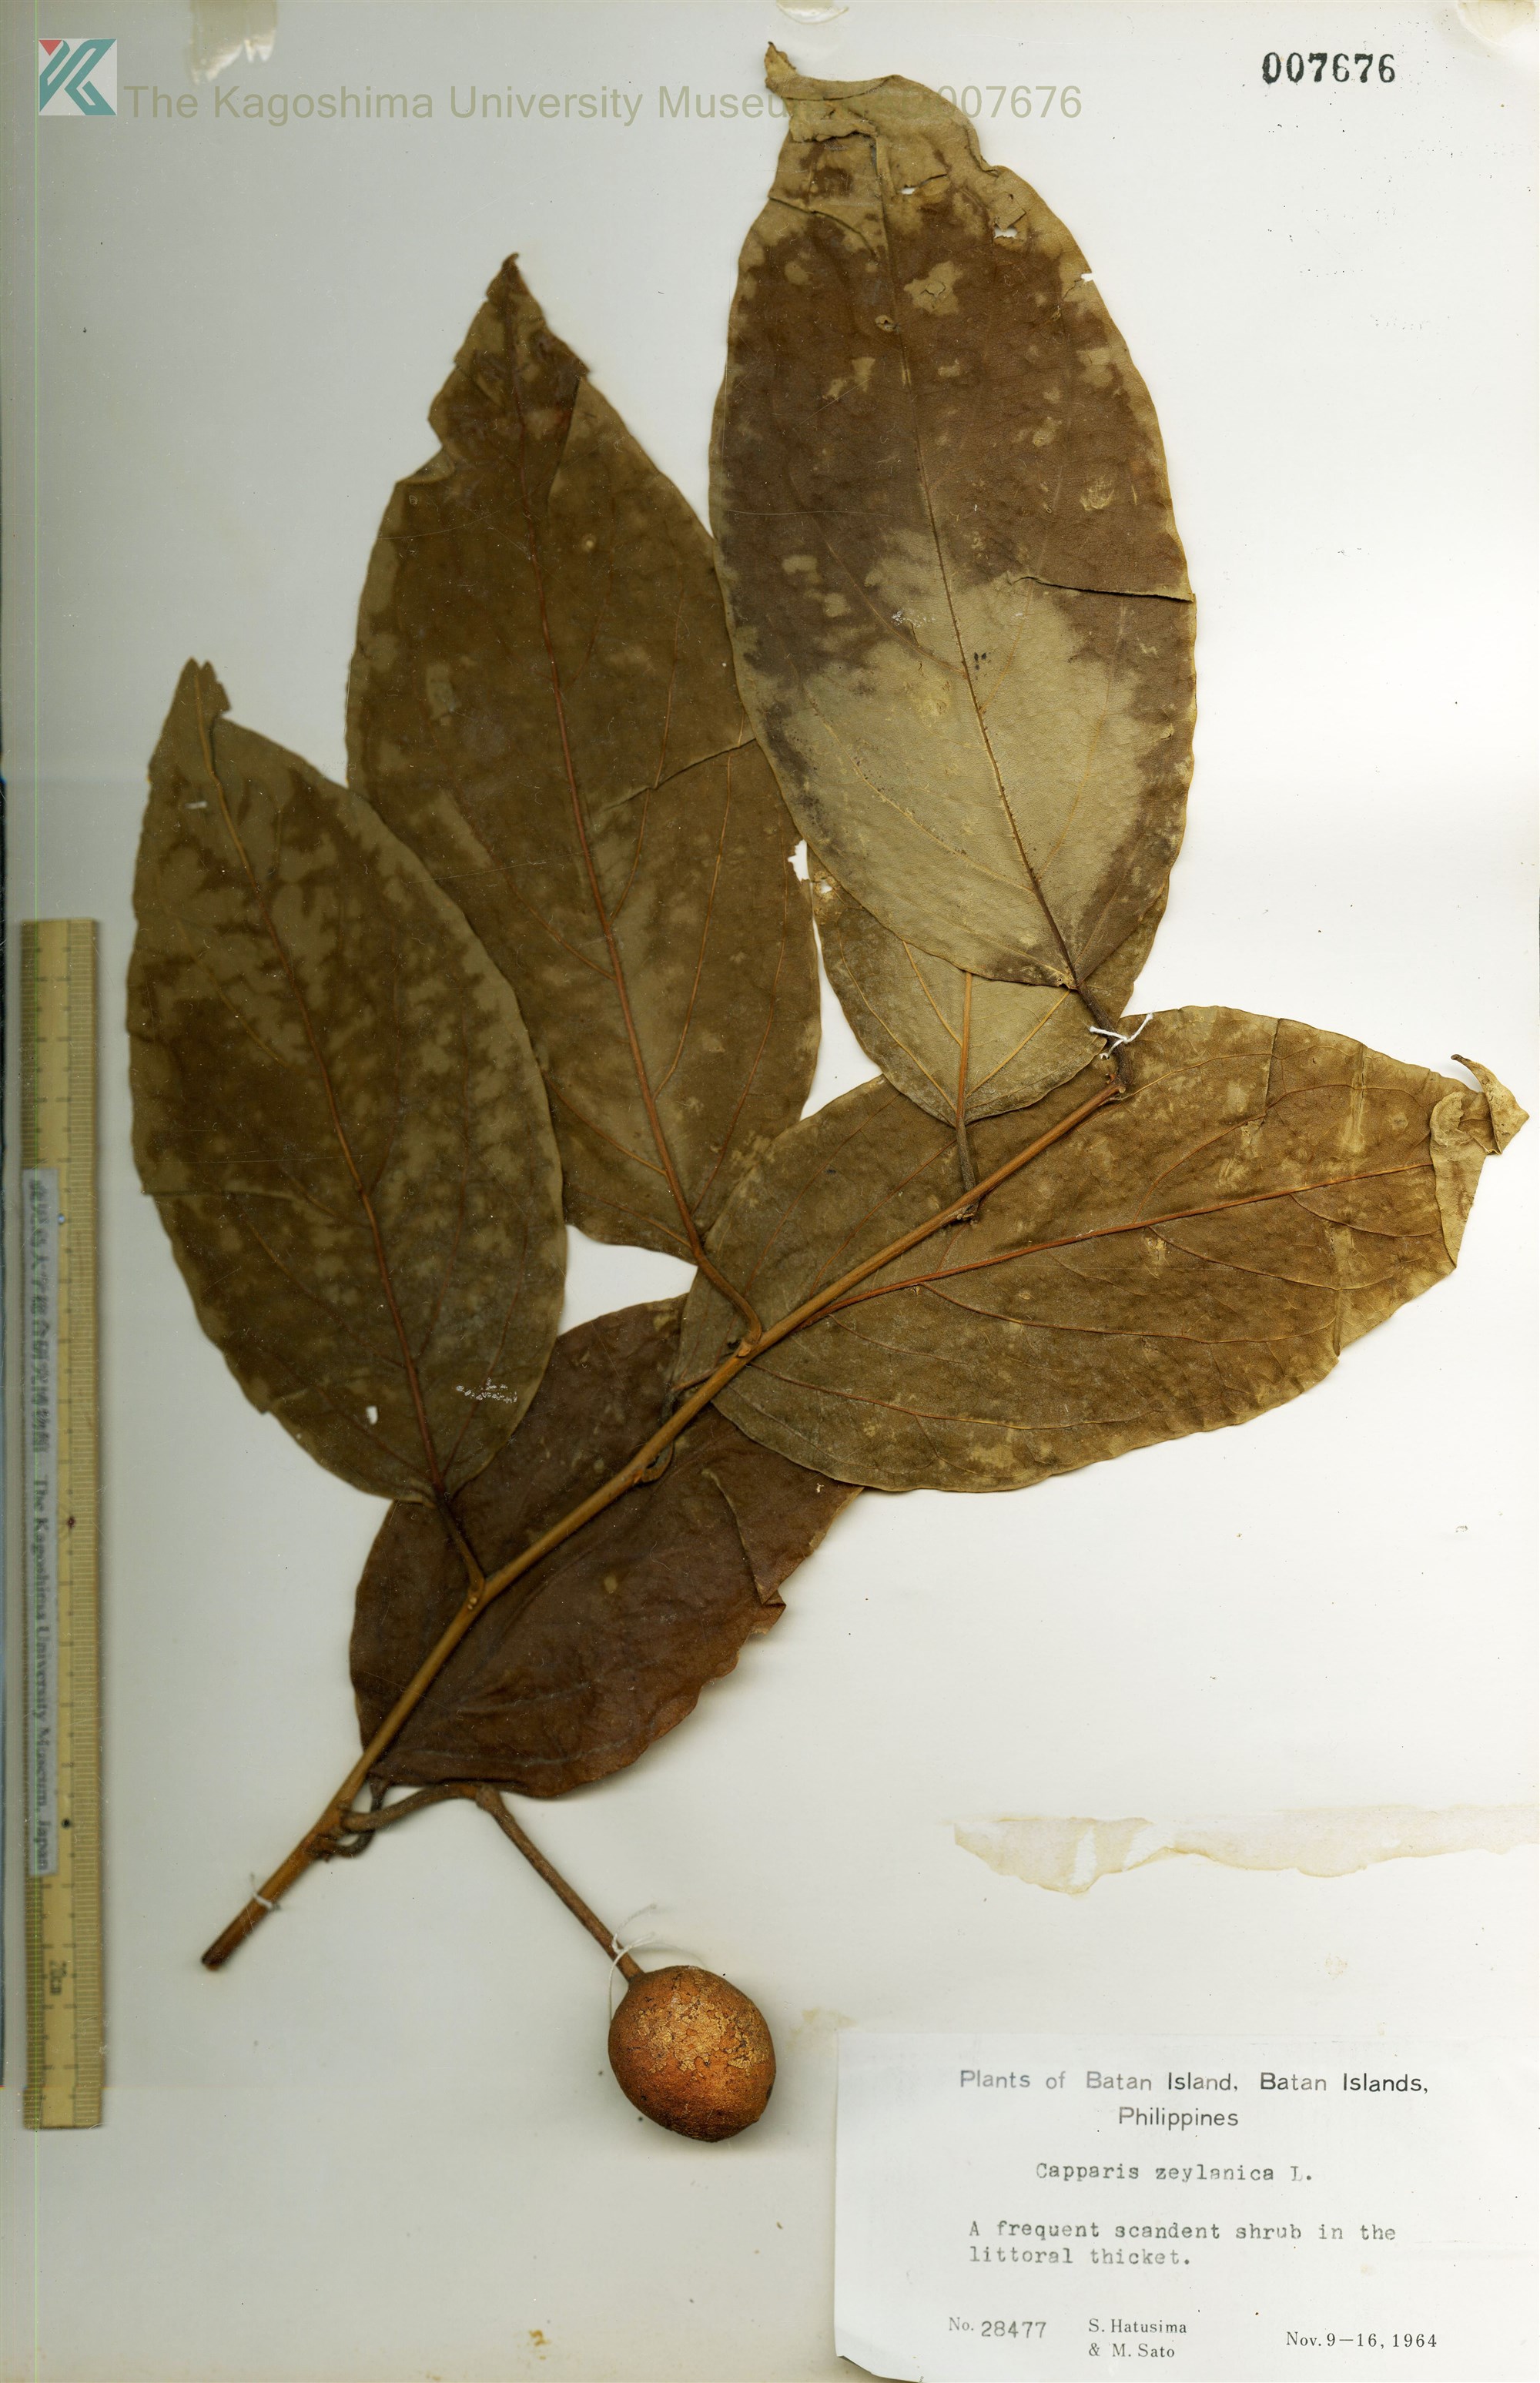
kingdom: Plantae
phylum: Tracheophyta
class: Magnoliopsida
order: Brassicales
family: Capparaceae
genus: Capparis
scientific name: Capparis zeylanica
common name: Ceylon caper
